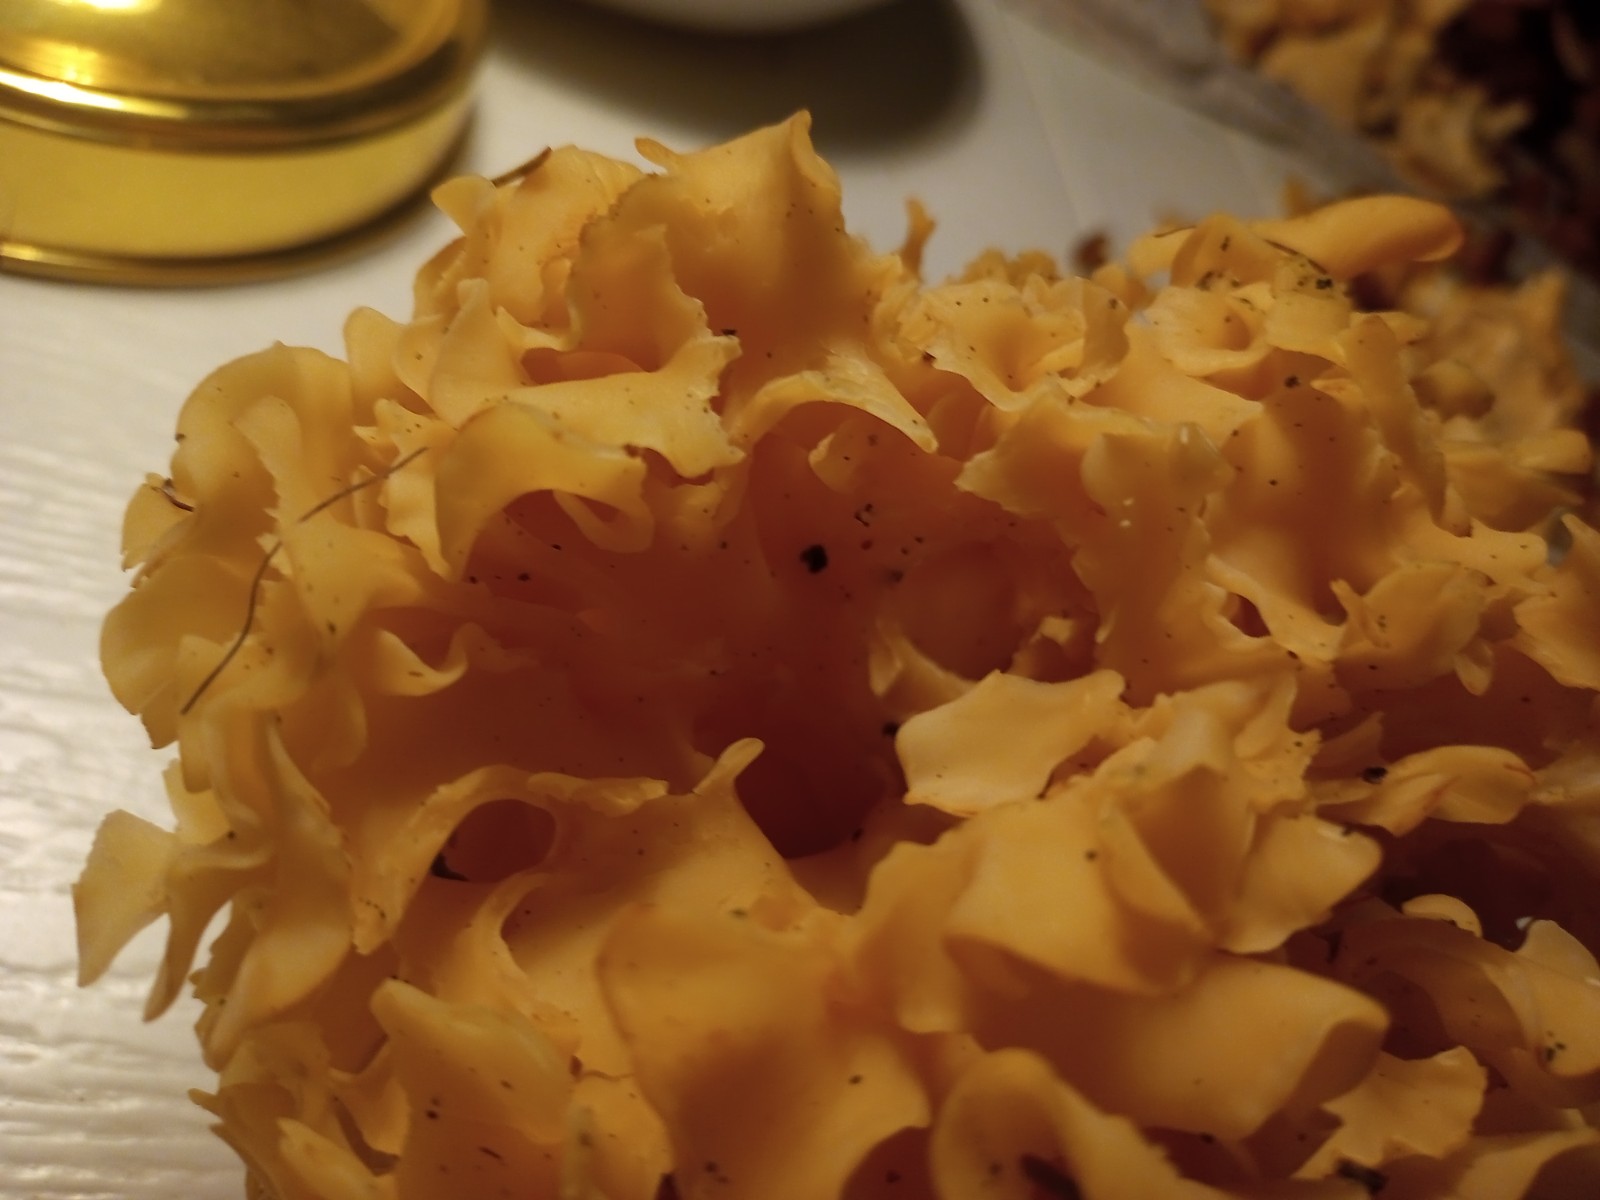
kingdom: Fungi
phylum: Basidiomycota
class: Agaricomycetes
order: Polyporales
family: Sparassidaceae
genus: Sparassis
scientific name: Sparassis crispa
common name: kruset blomkålssvamp
